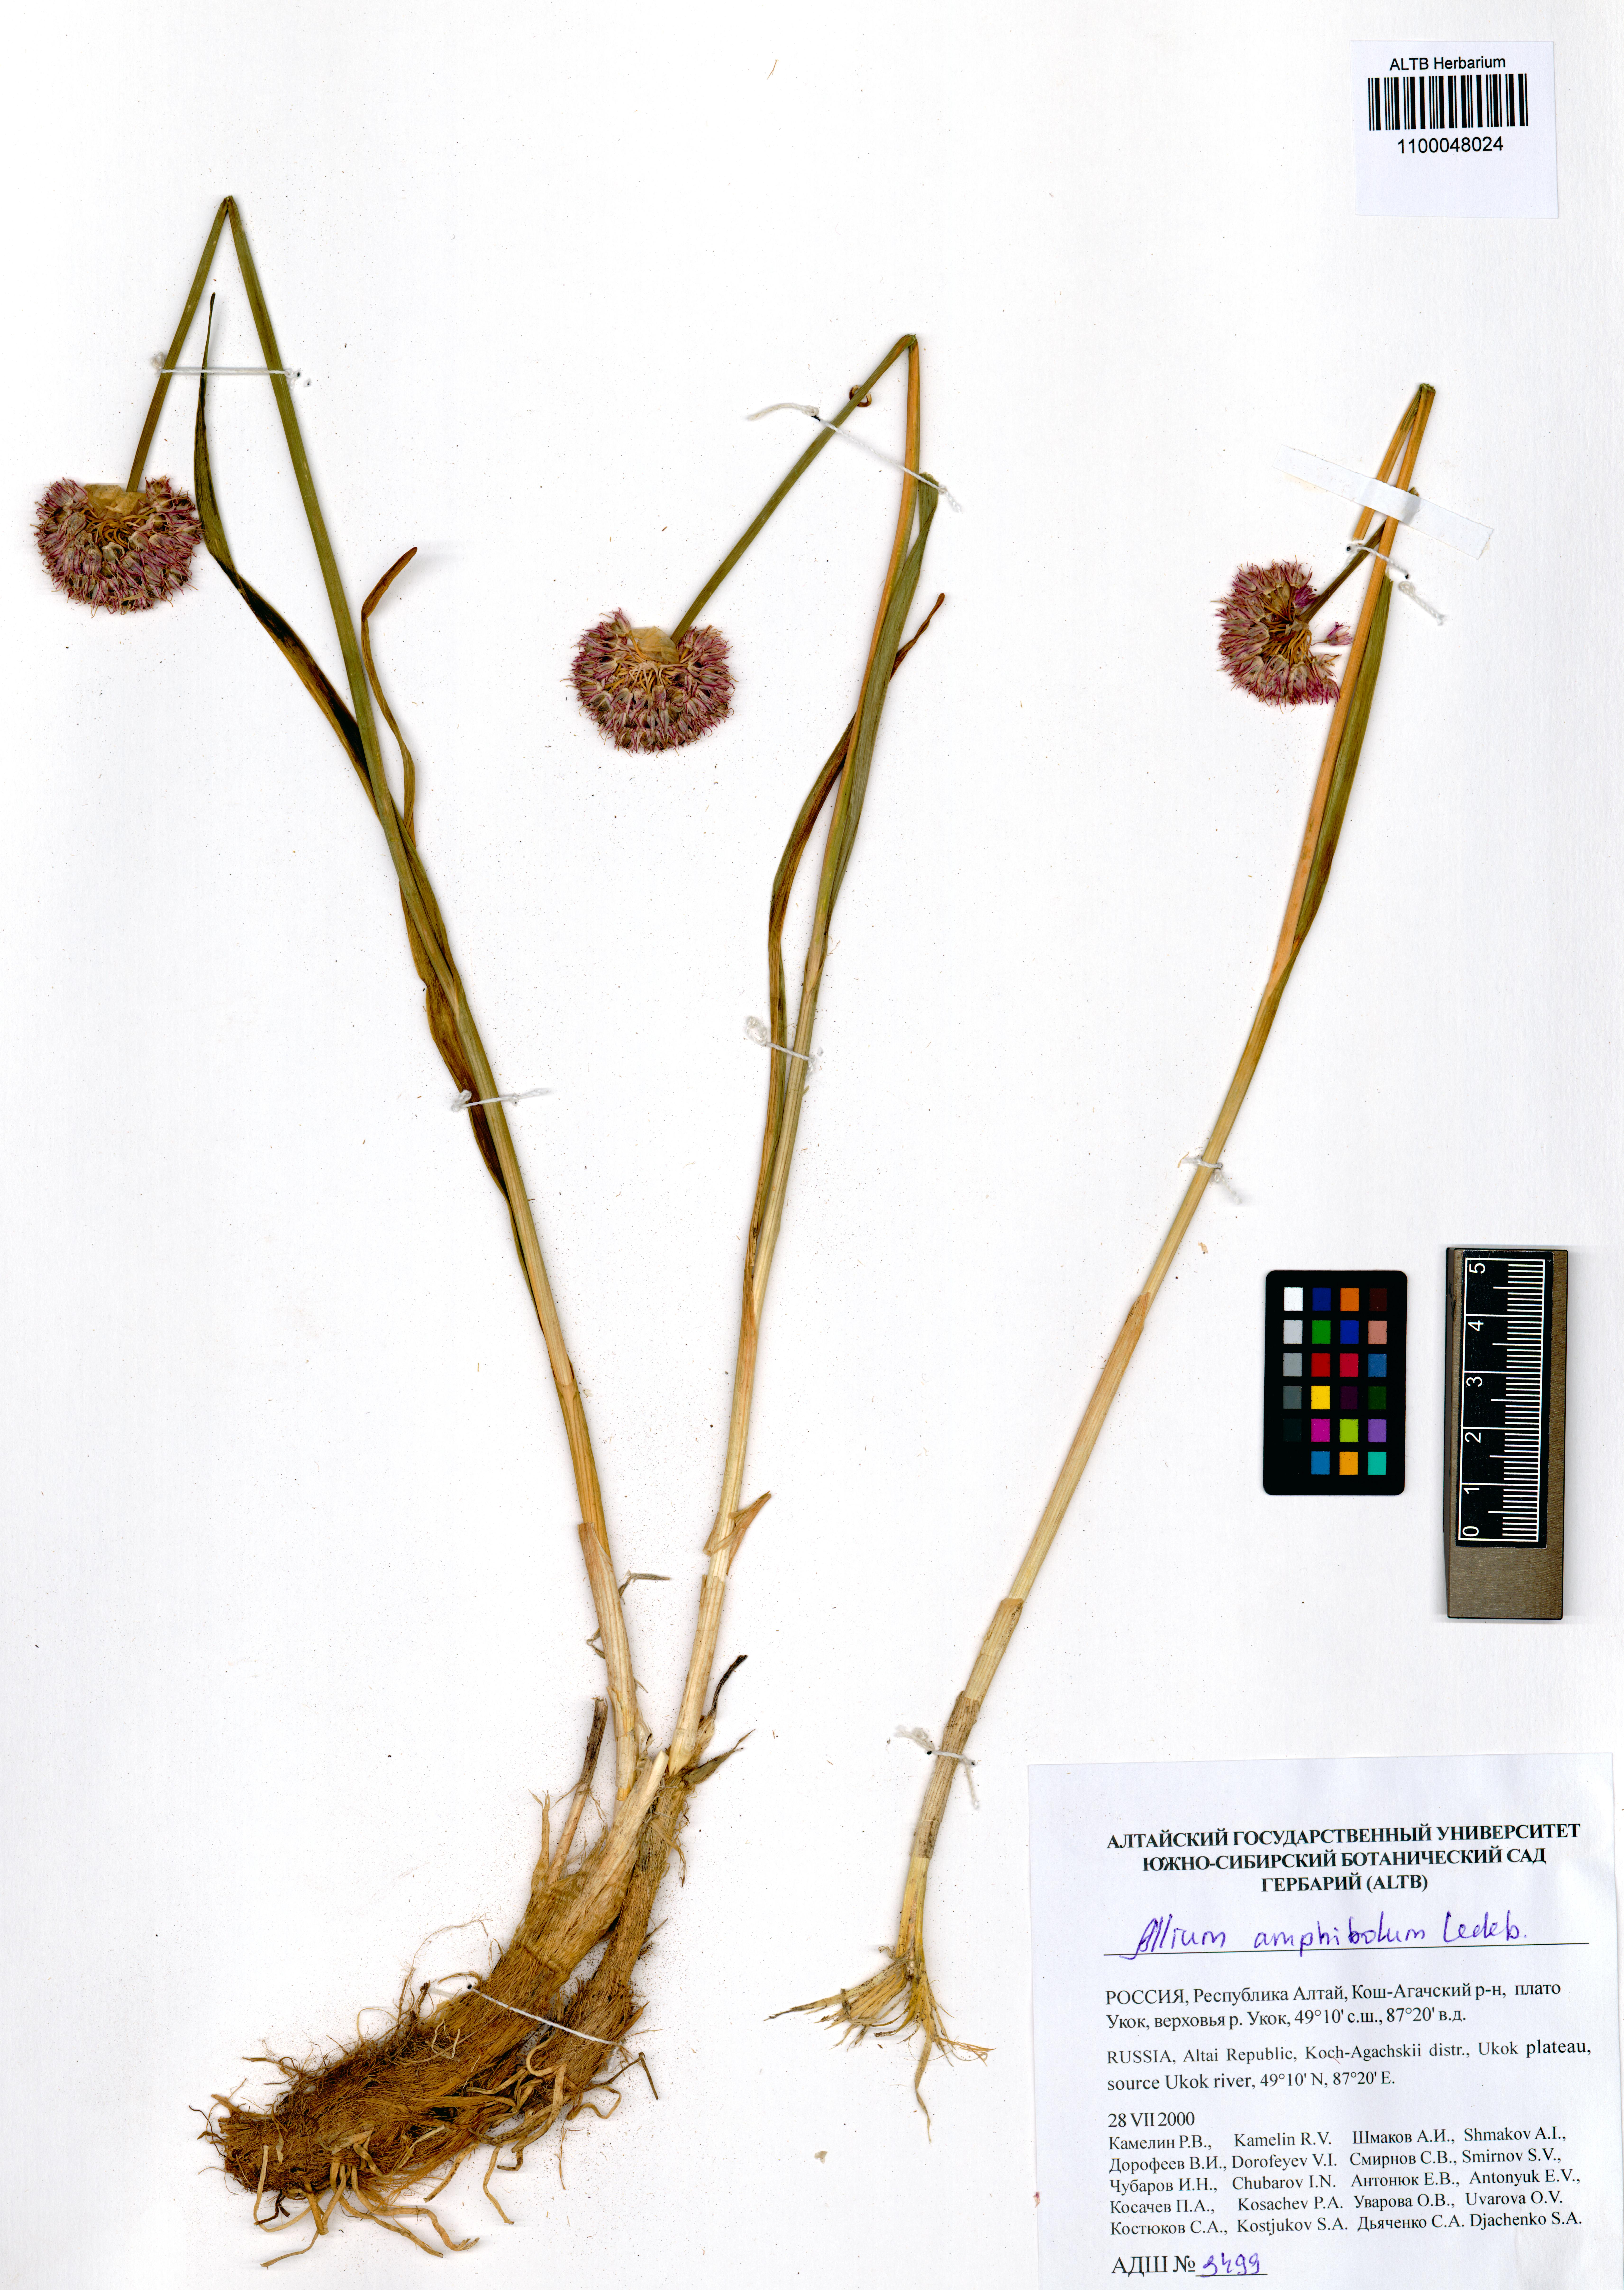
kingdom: Plantae
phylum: Tracheophyta
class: Liliopsida
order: Asparagales
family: Amaryllidaceae
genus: Allium
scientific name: Allium amphibolum
